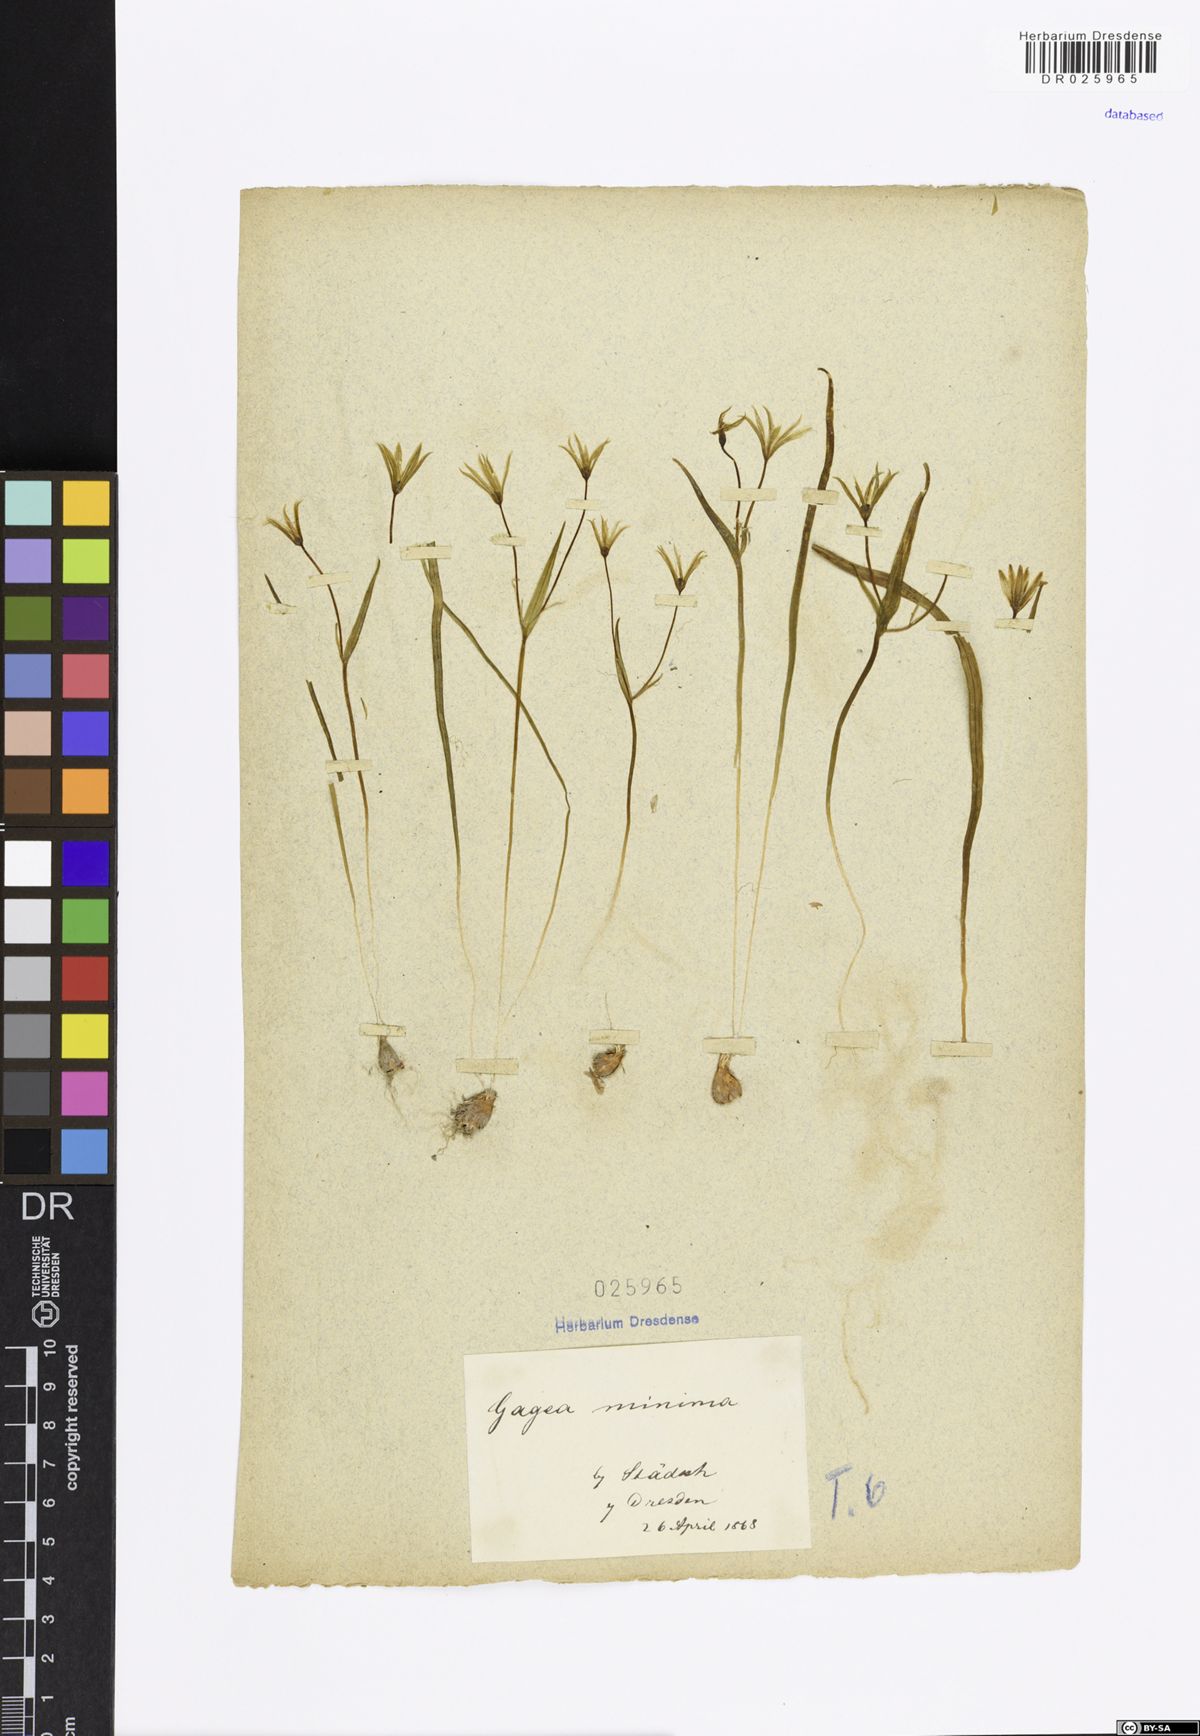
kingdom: Plantae
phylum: Tracheophyta
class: Liliopsida
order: Liliales
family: Liliaceae
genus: Gagea
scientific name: Gagea minima
